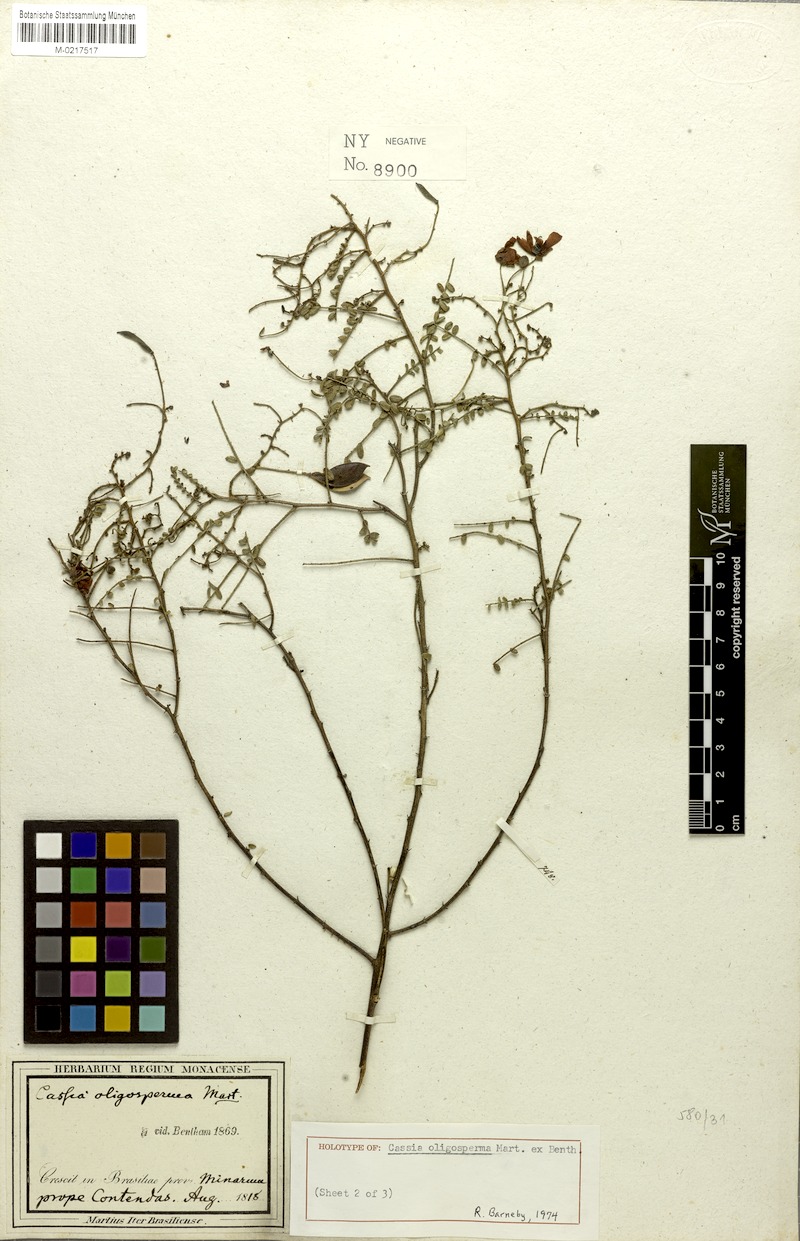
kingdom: Plantae
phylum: Tracheophyta
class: Magnoliopsida
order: Fabales
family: Fabaceae
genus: Chamaecrista
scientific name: Chamaecrista oligosperma
